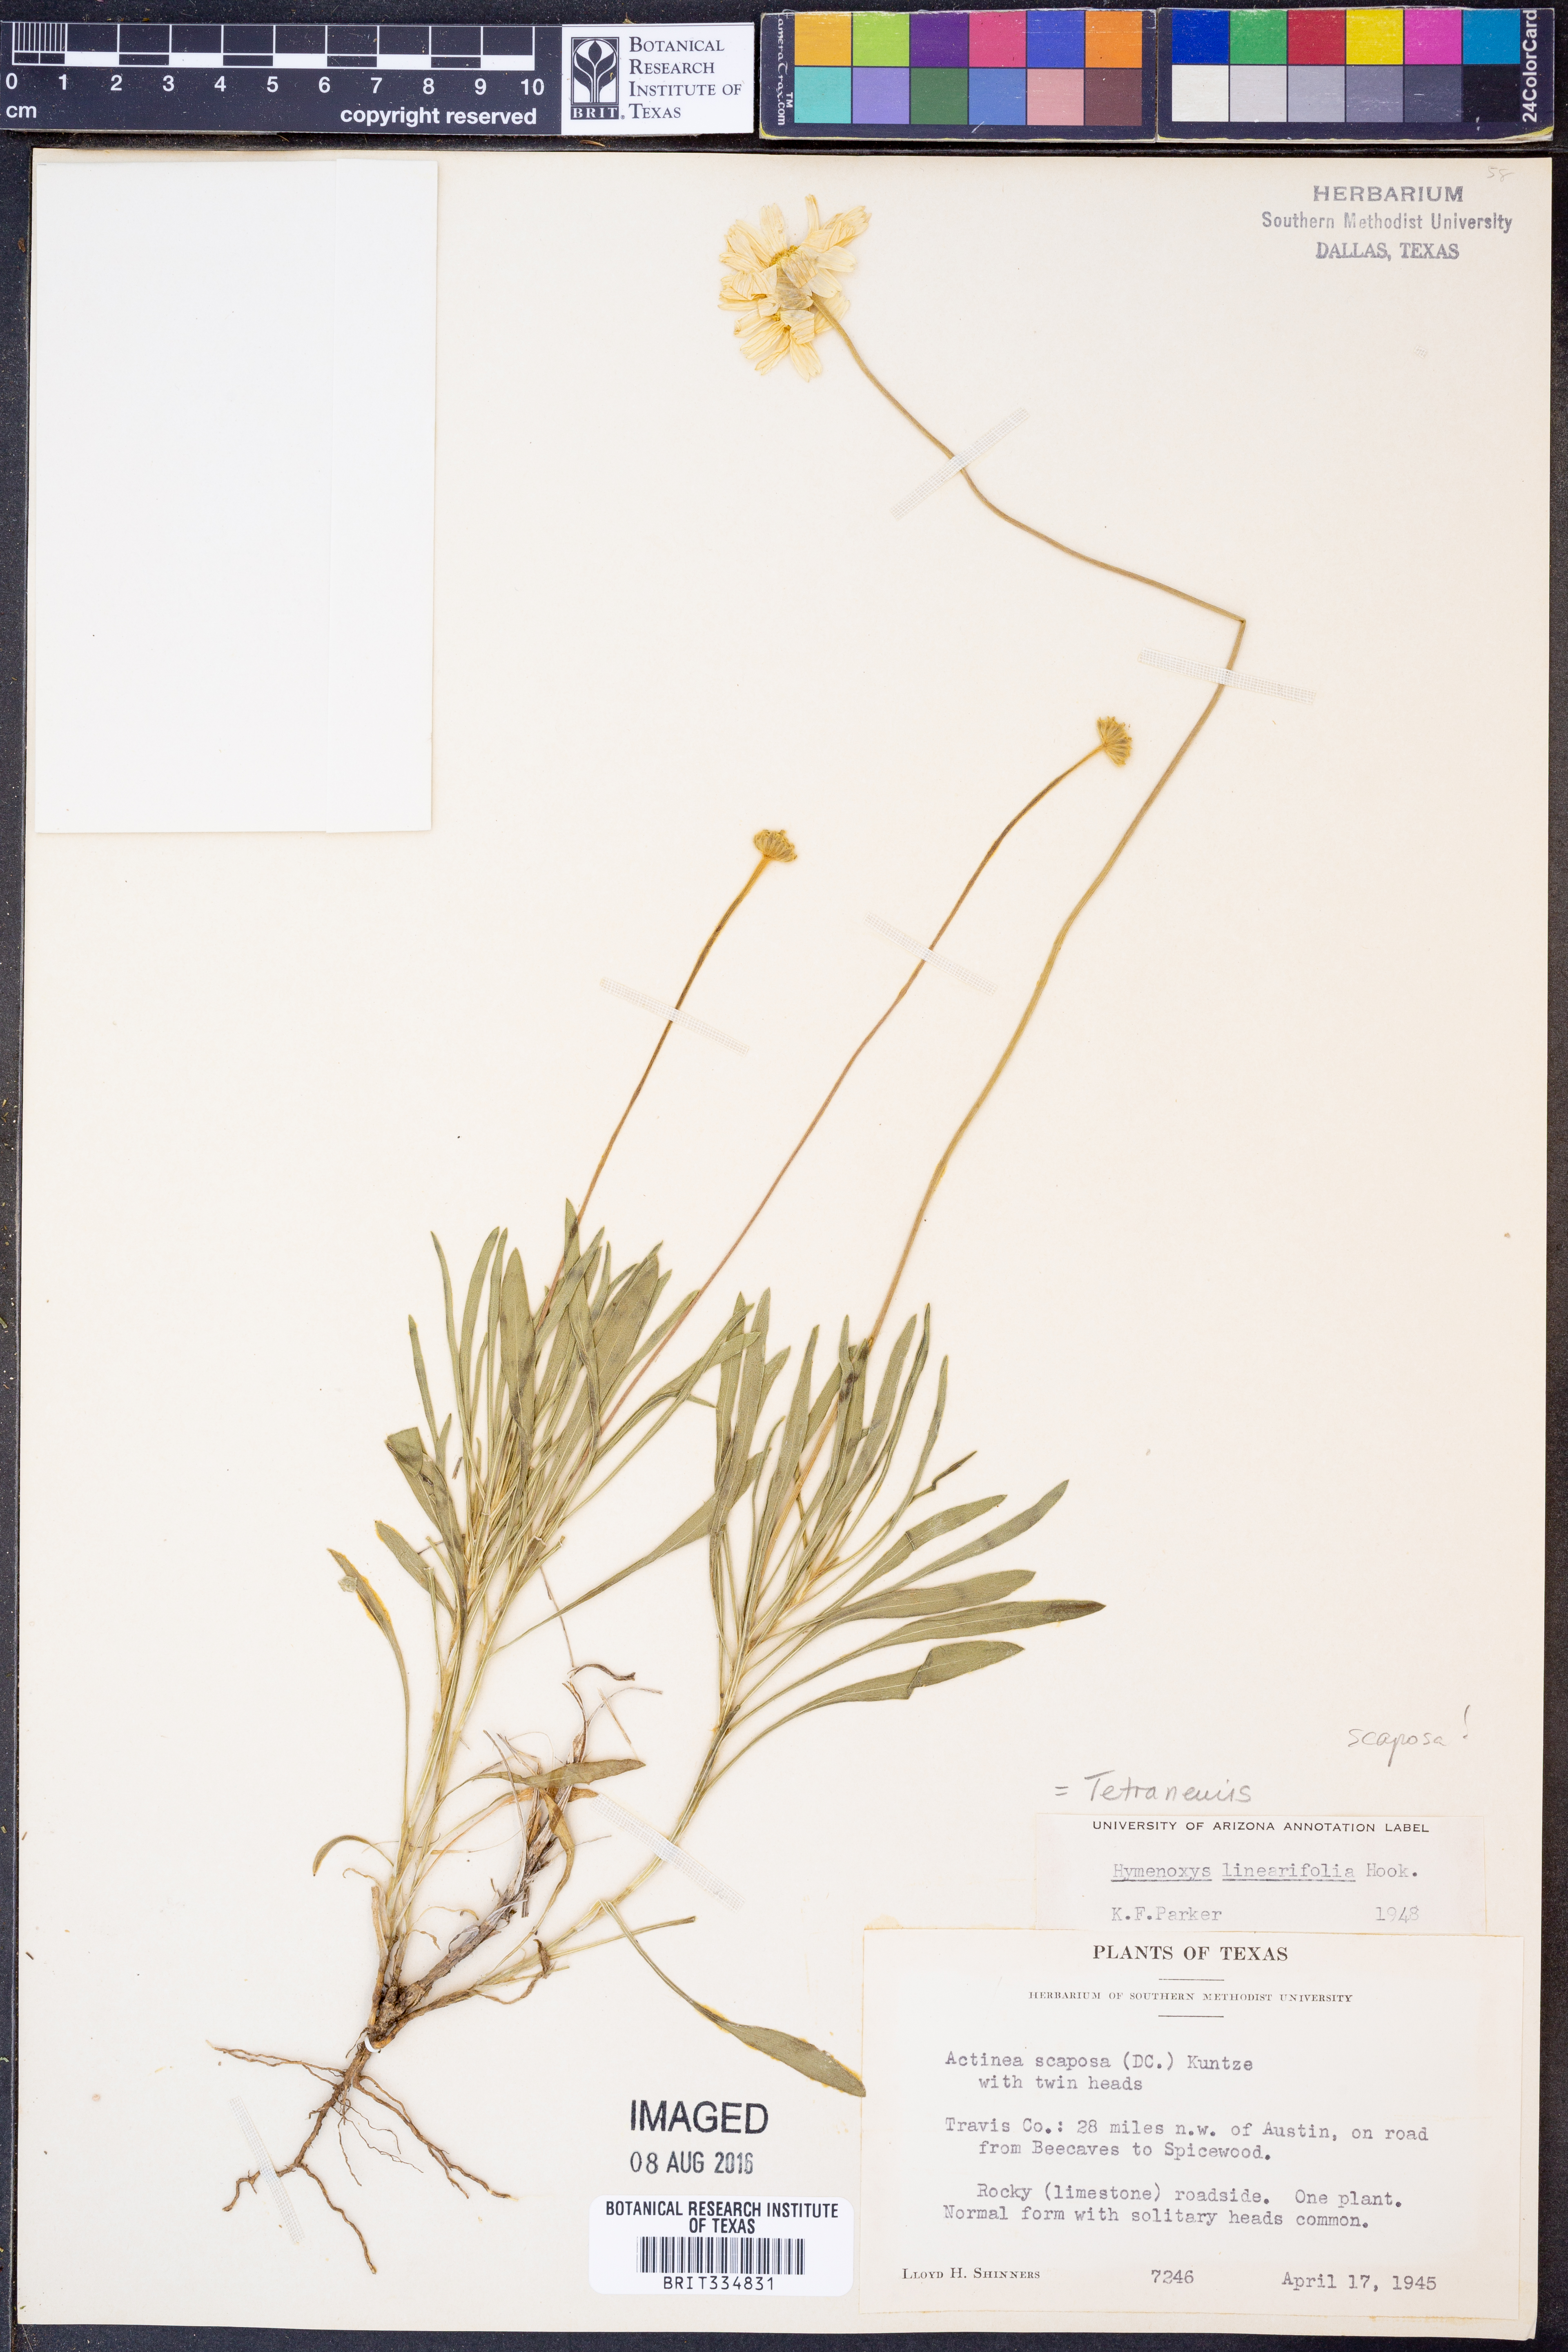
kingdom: Plantae
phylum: Tracheophyta
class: Magnoliopsida
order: Asterales
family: Asteraceae
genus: Tetraneuris
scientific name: Tetraneuris scaposa
